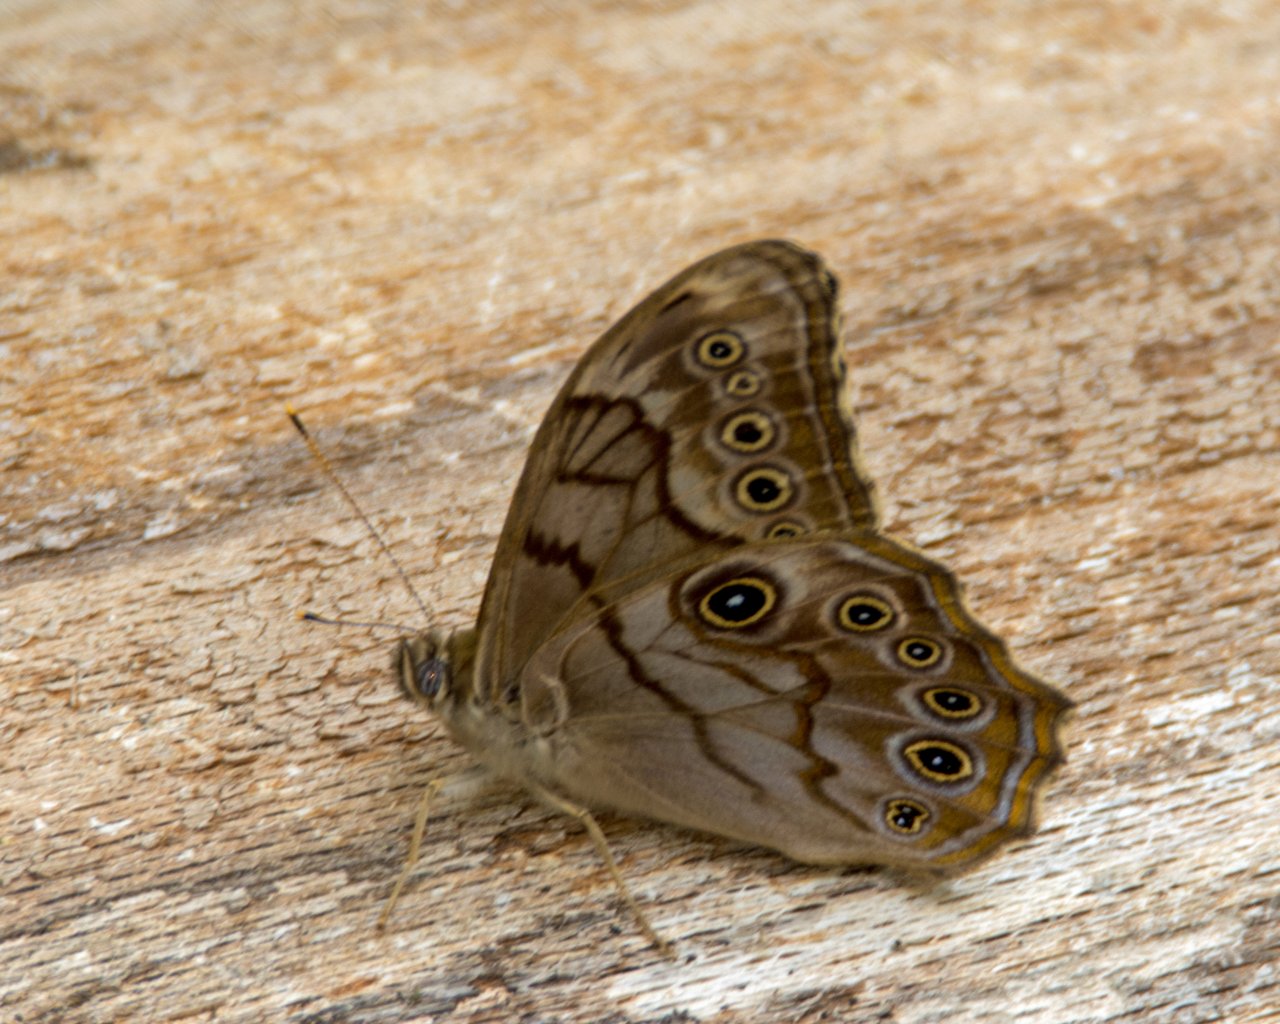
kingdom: Animalia
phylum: Arthropoda
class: Insecta
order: Lepidoptera
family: Nymphalidae
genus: Lethe
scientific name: Lethe creola
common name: Creole Pearly-Eye
